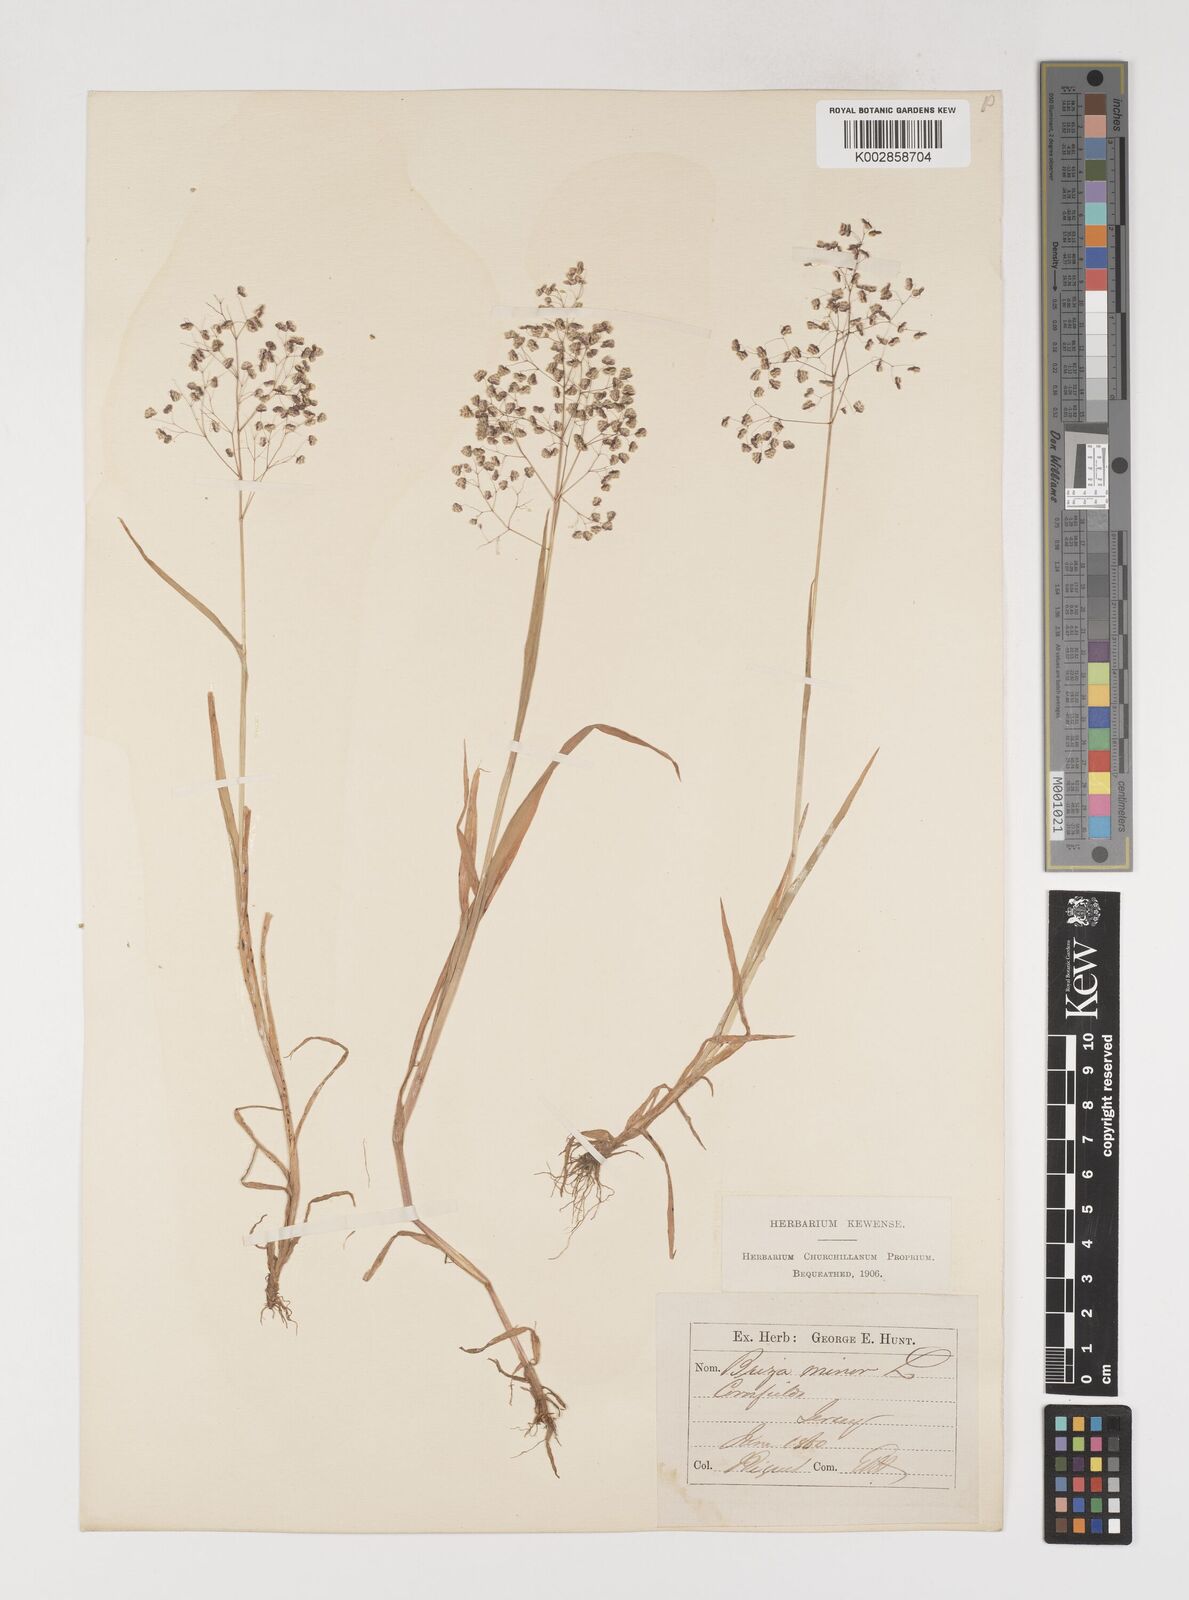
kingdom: Plantae
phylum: Tracheophyta
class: Liliopsida
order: Poales
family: Poaceae
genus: Briza
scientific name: Briza minor
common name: Lesser quaking-grass
